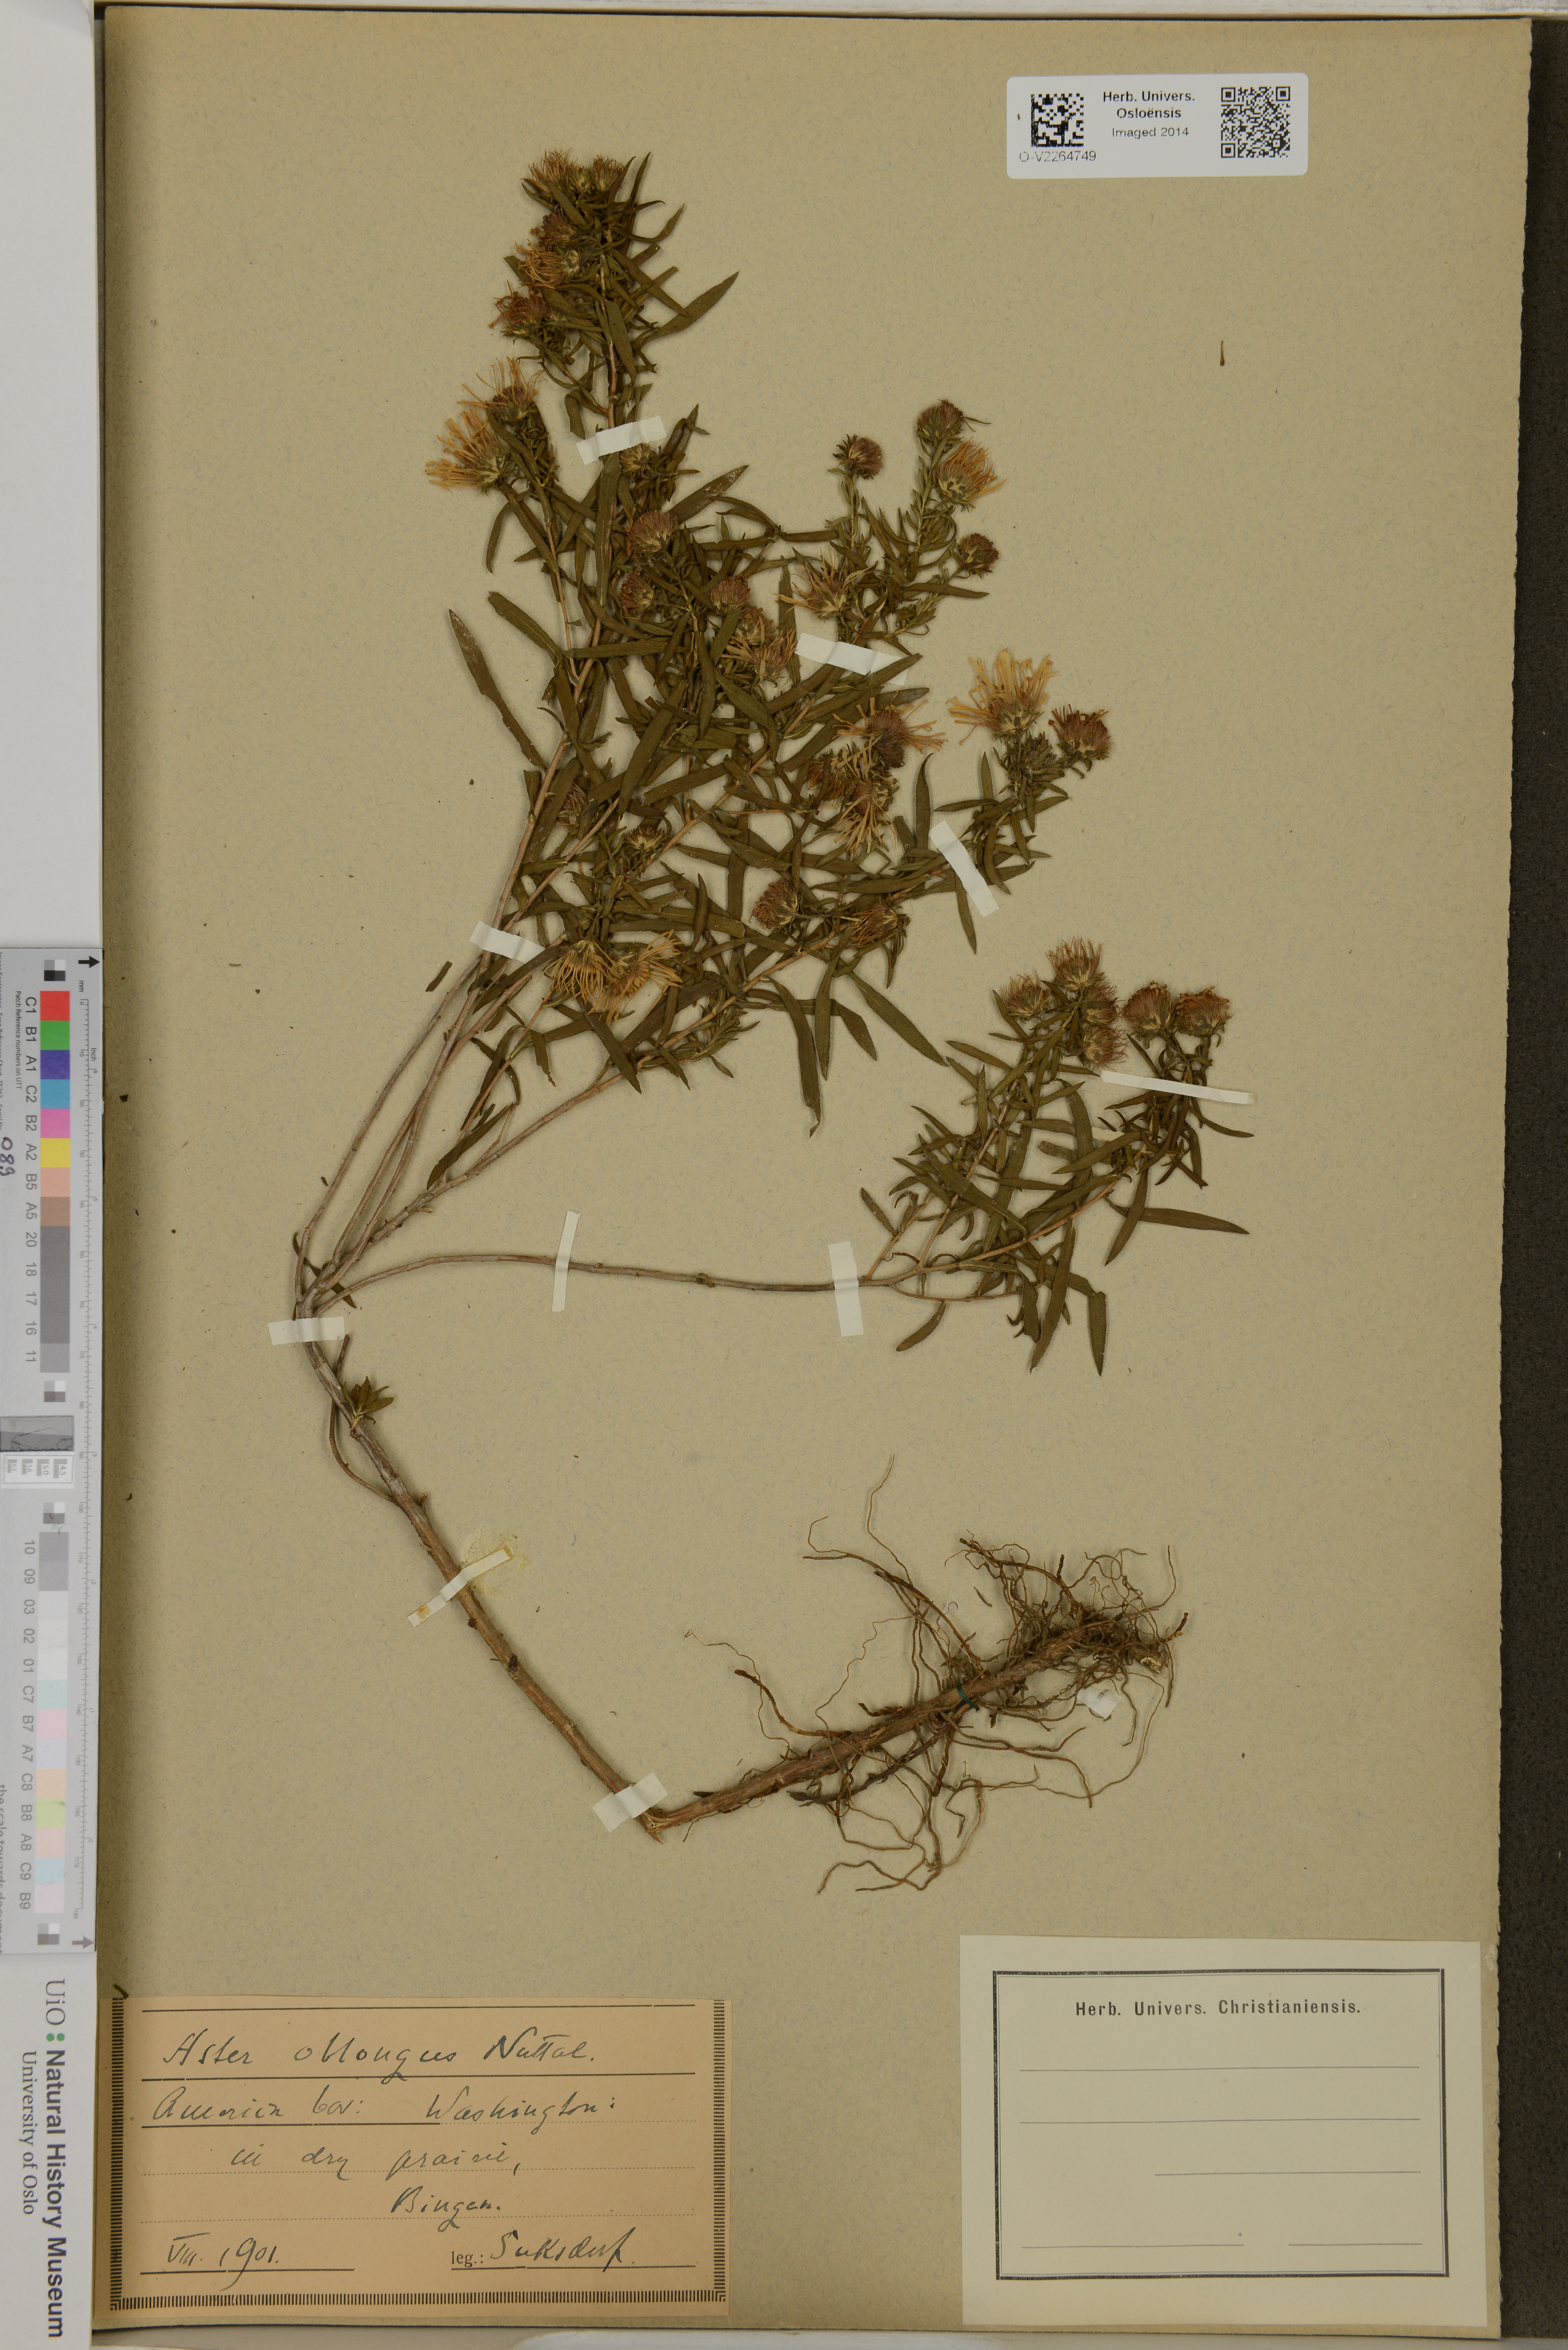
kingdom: Plantae
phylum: Tracheophyta
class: Magnoliopsida
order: Asterales
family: Asteraceae
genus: Athrixia
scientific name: Athrixia heterophylla
